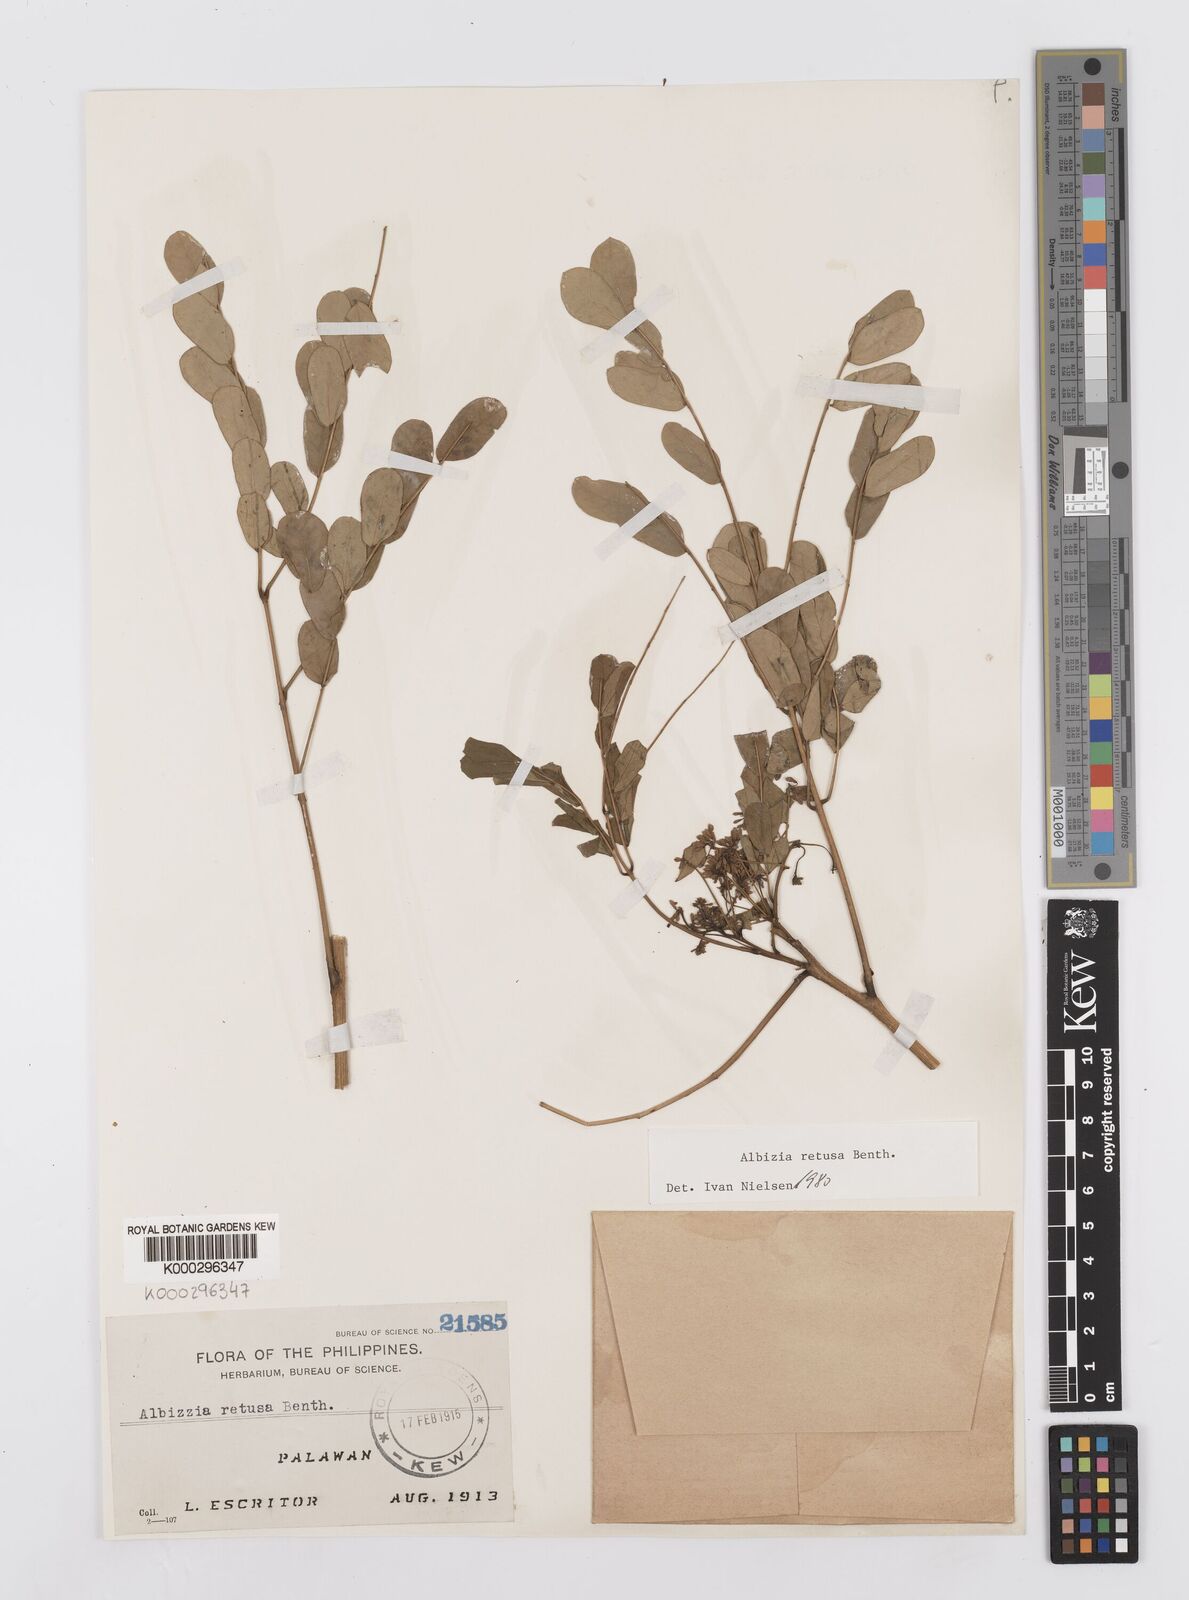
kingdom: Plantae
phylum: Tracheophyta
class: Magnoliopsida
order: Fabales
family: Fabaceae
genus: Albizia
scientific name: Albizia retusa
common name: Sea albizia
